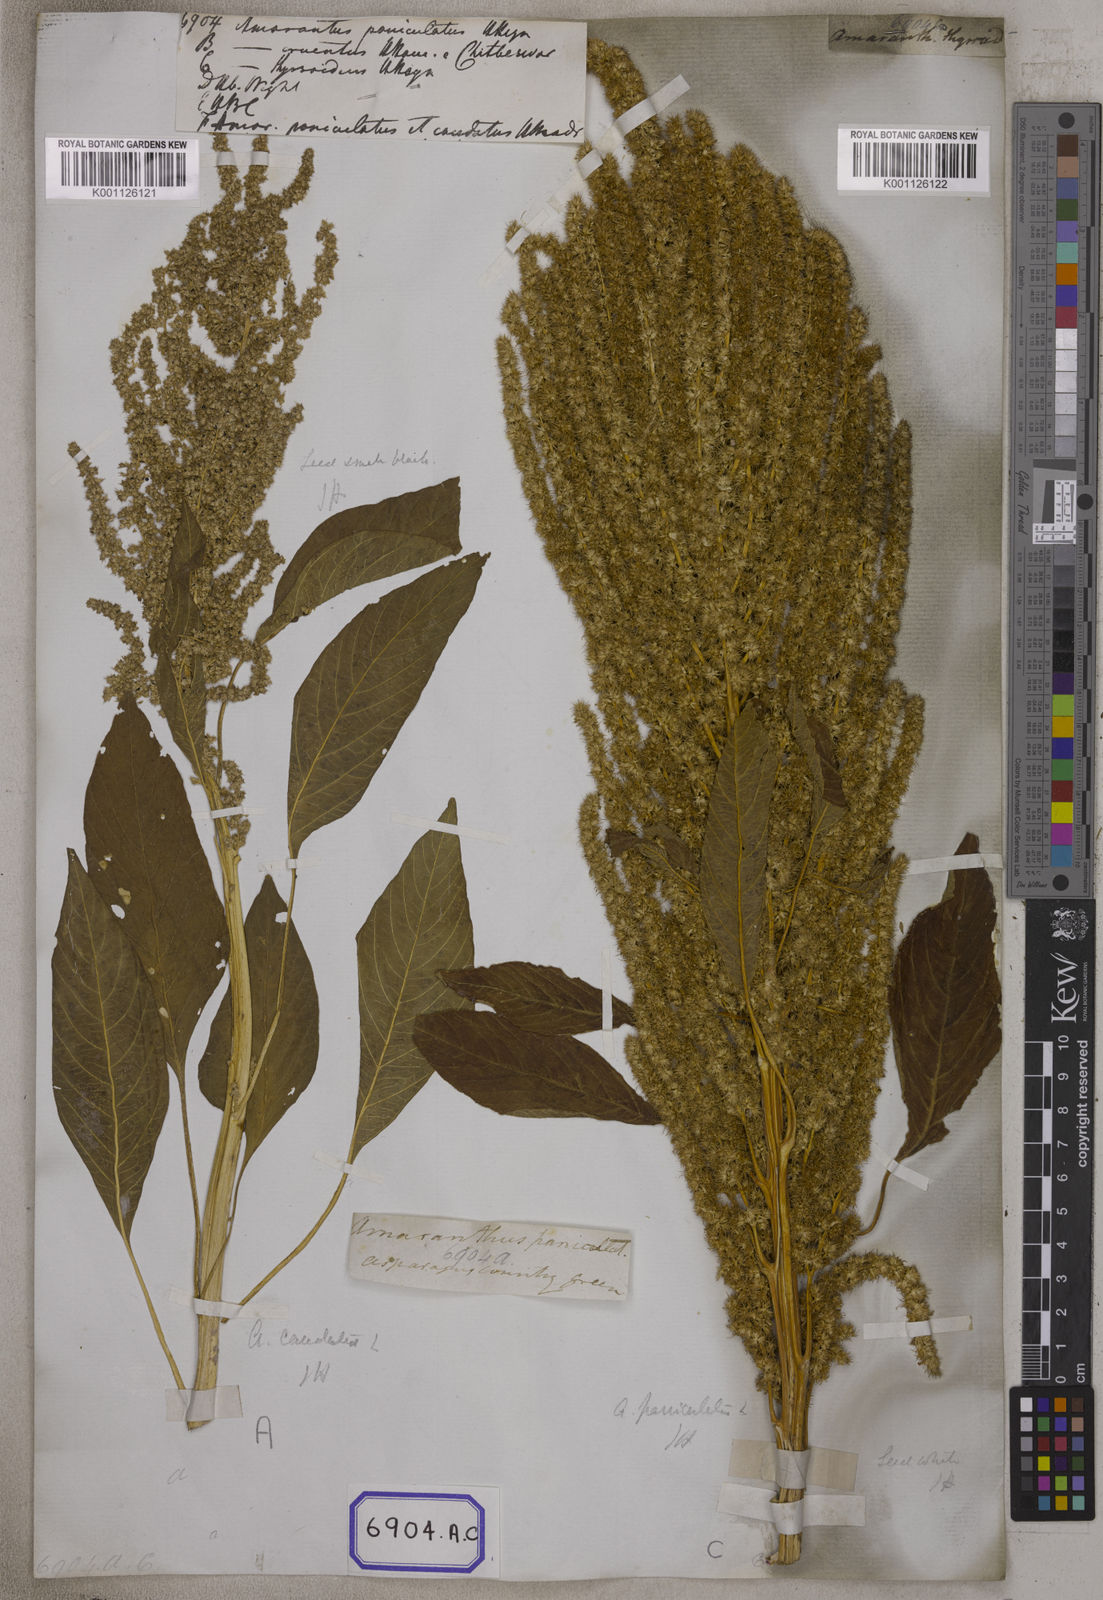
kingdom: Plantae
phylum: Tracheophyta
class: Magnoliopsida
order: Caryophyllales
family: Amaranthaceae
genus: Amaranthus
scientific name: Amaranthus
